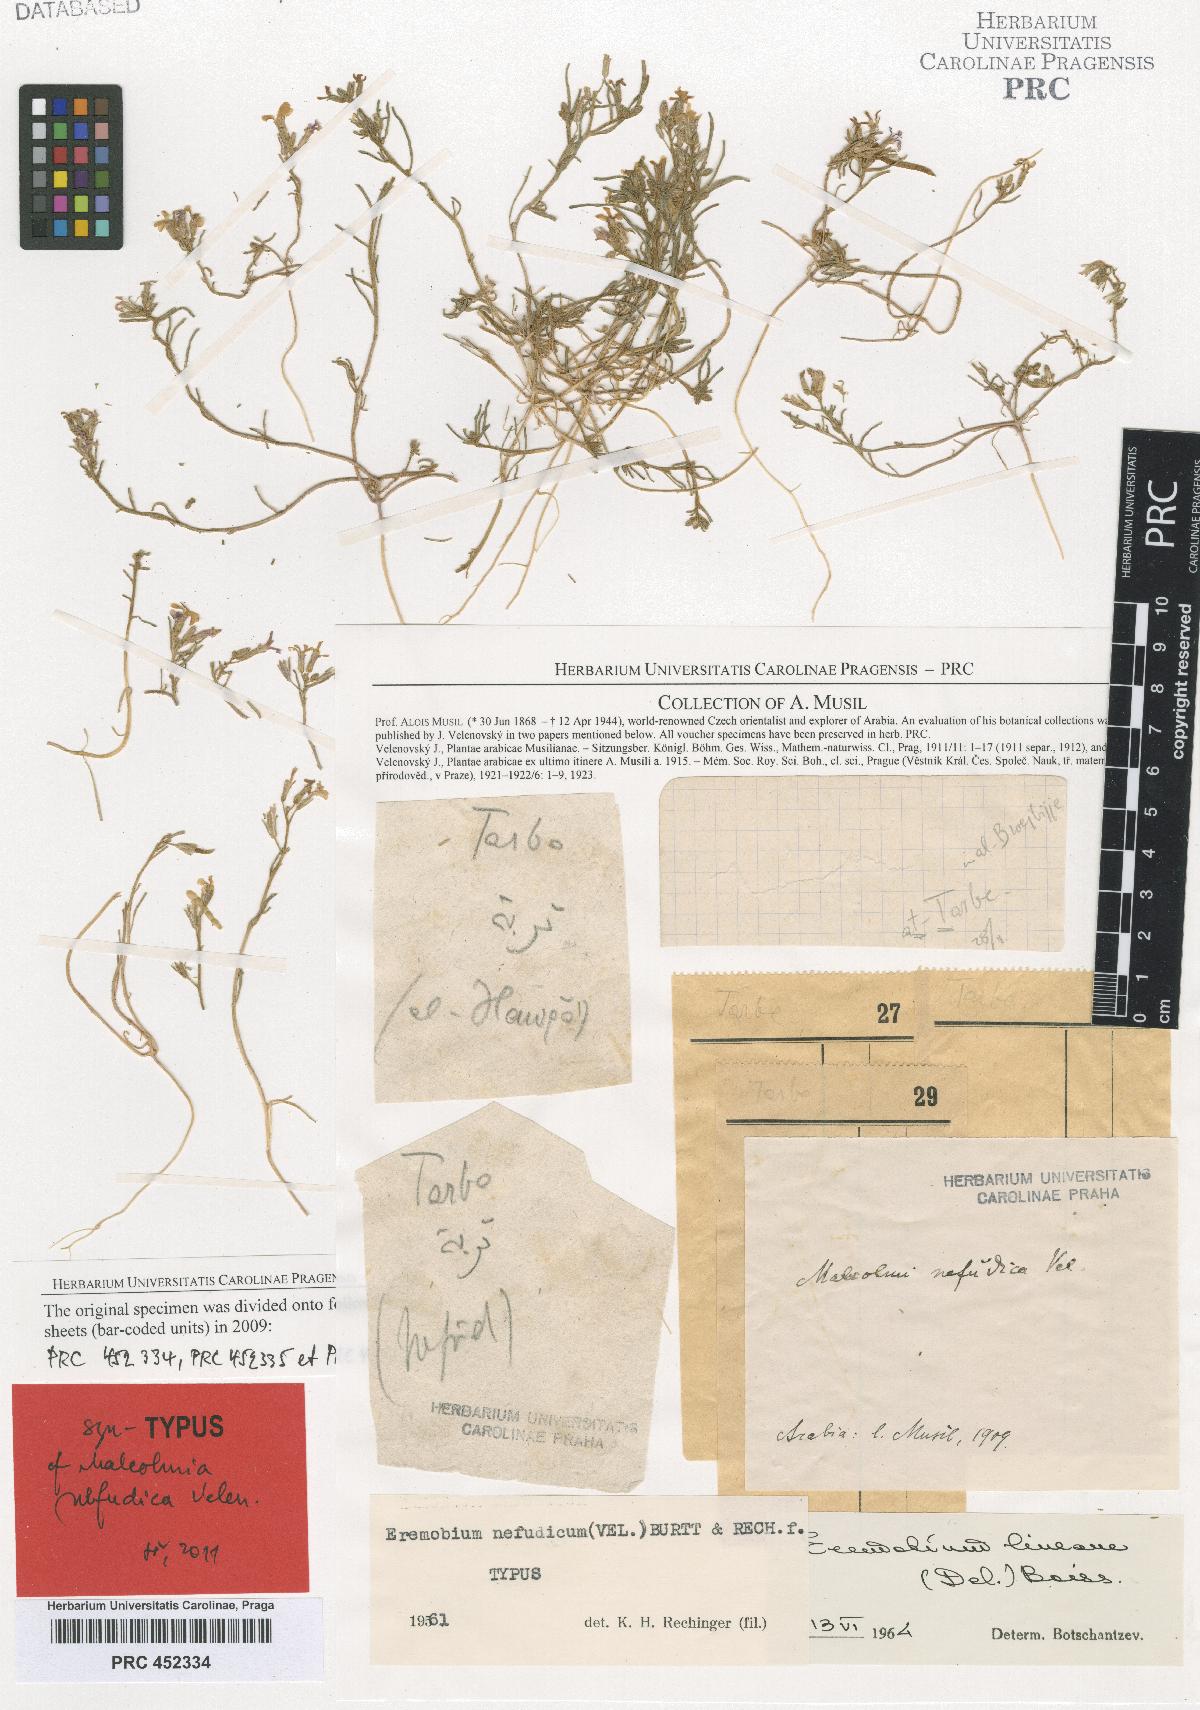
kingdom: Plantae
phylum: Tracheophyta
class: Magnoliopsida
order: Brassicales
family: Brassicaceae
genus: Eremobium
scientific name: Eremobium aegyptiacum
